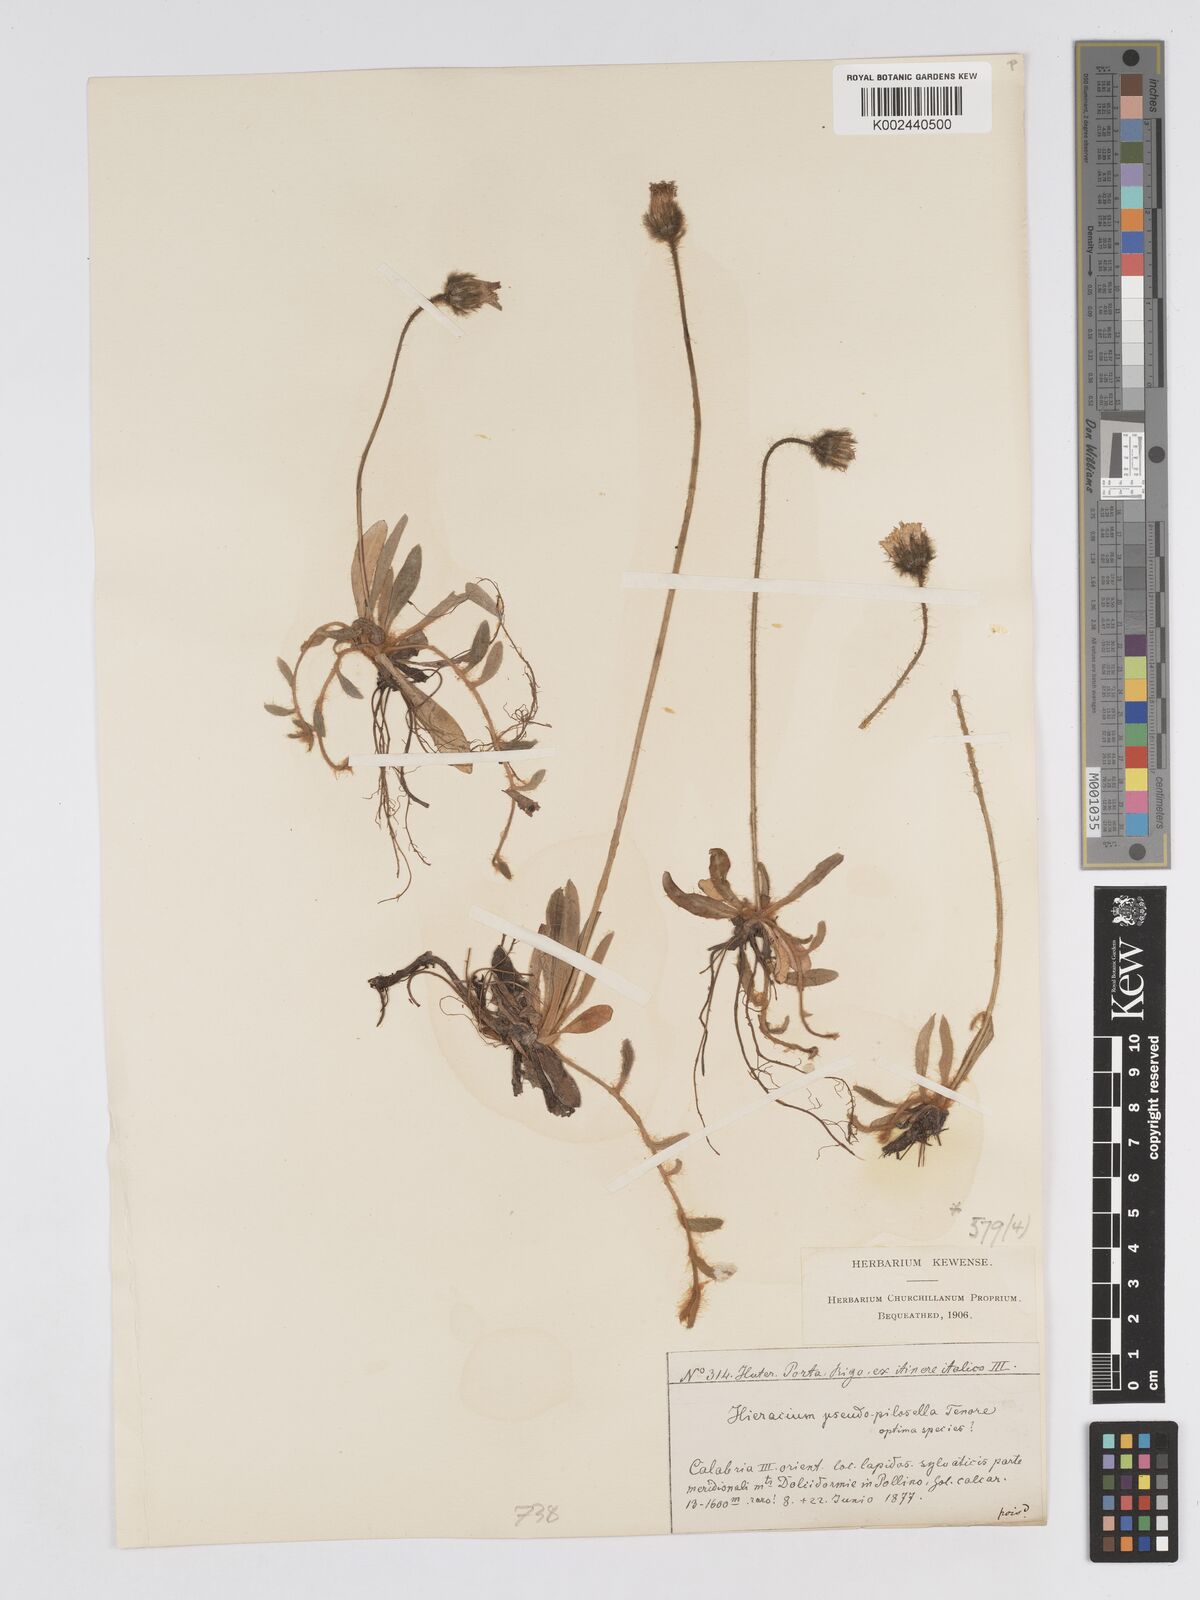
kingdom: Plantae
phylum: Tracheophyta
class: Magnoliopsida
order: Asterales
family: Asteraceae
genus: Pilosella
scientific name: Pilosella pseudopilosella
